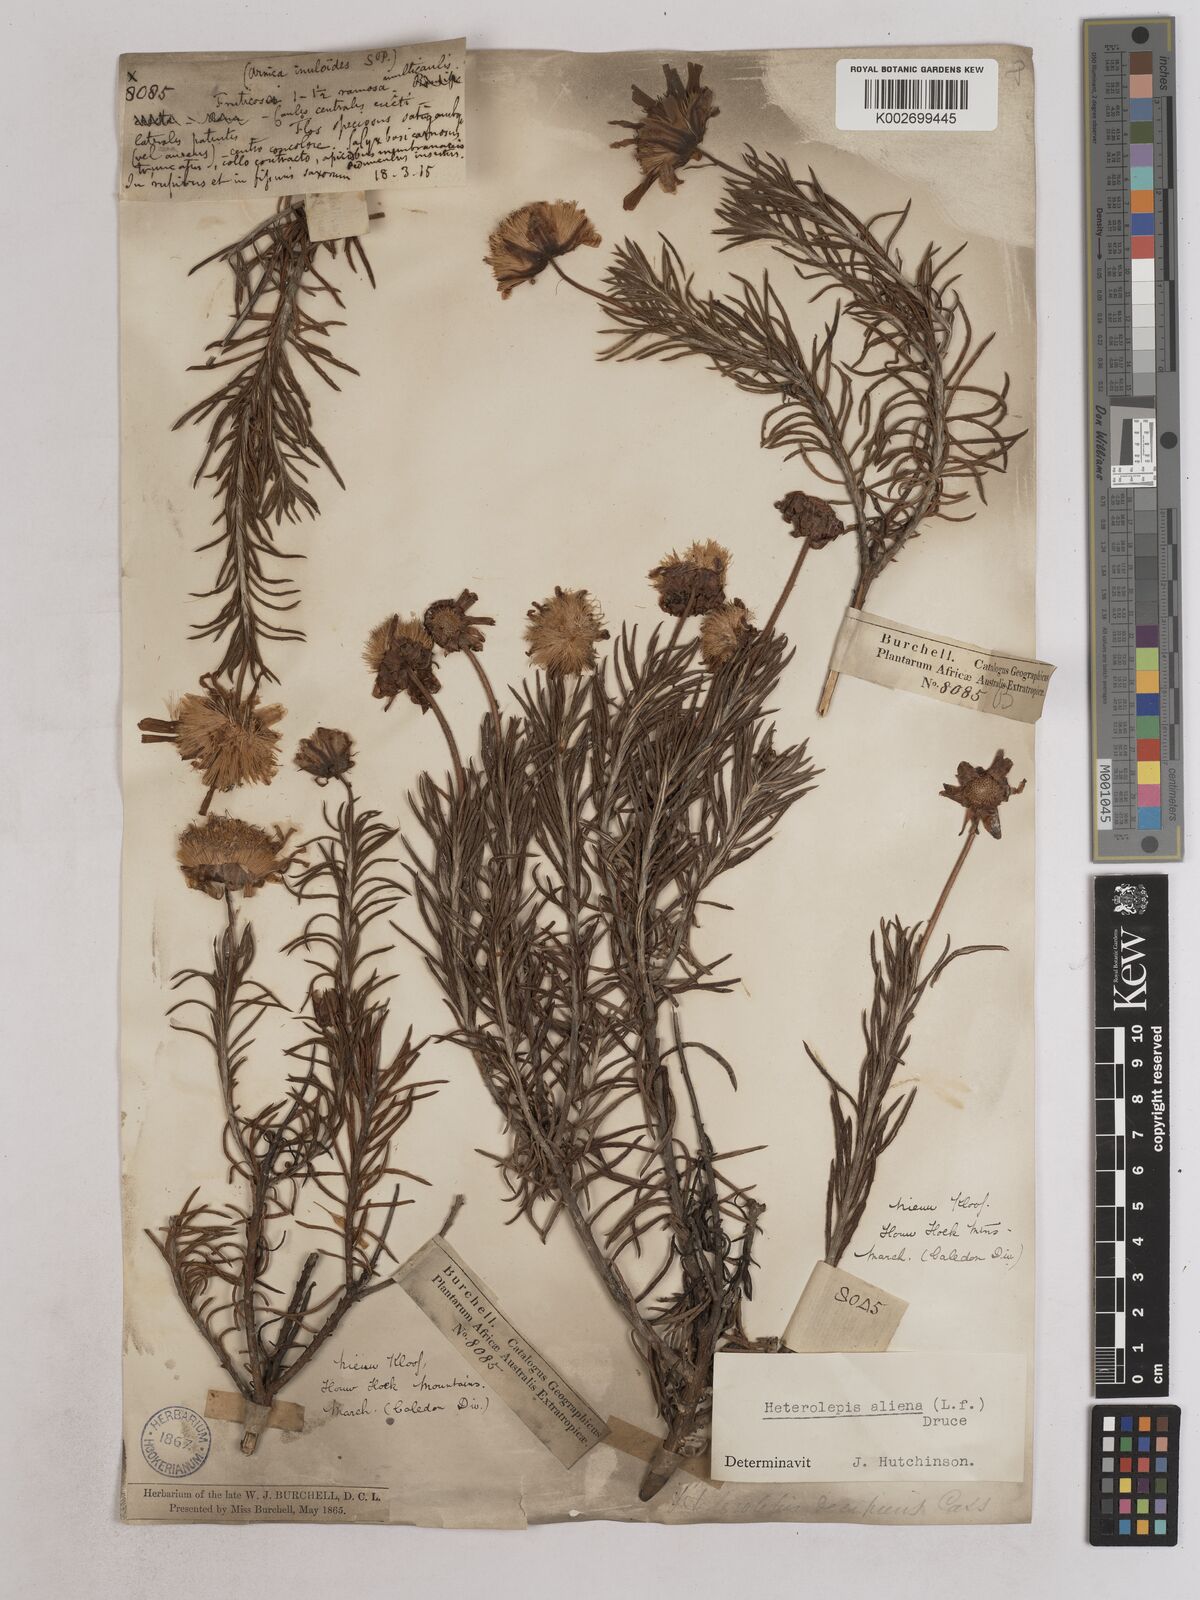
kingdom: Plantae
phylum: Tracheophyta
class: Magnoliopsida
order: Asterales
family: Asteraceae
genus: Heterolepis
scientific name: Heterolepis aliena
